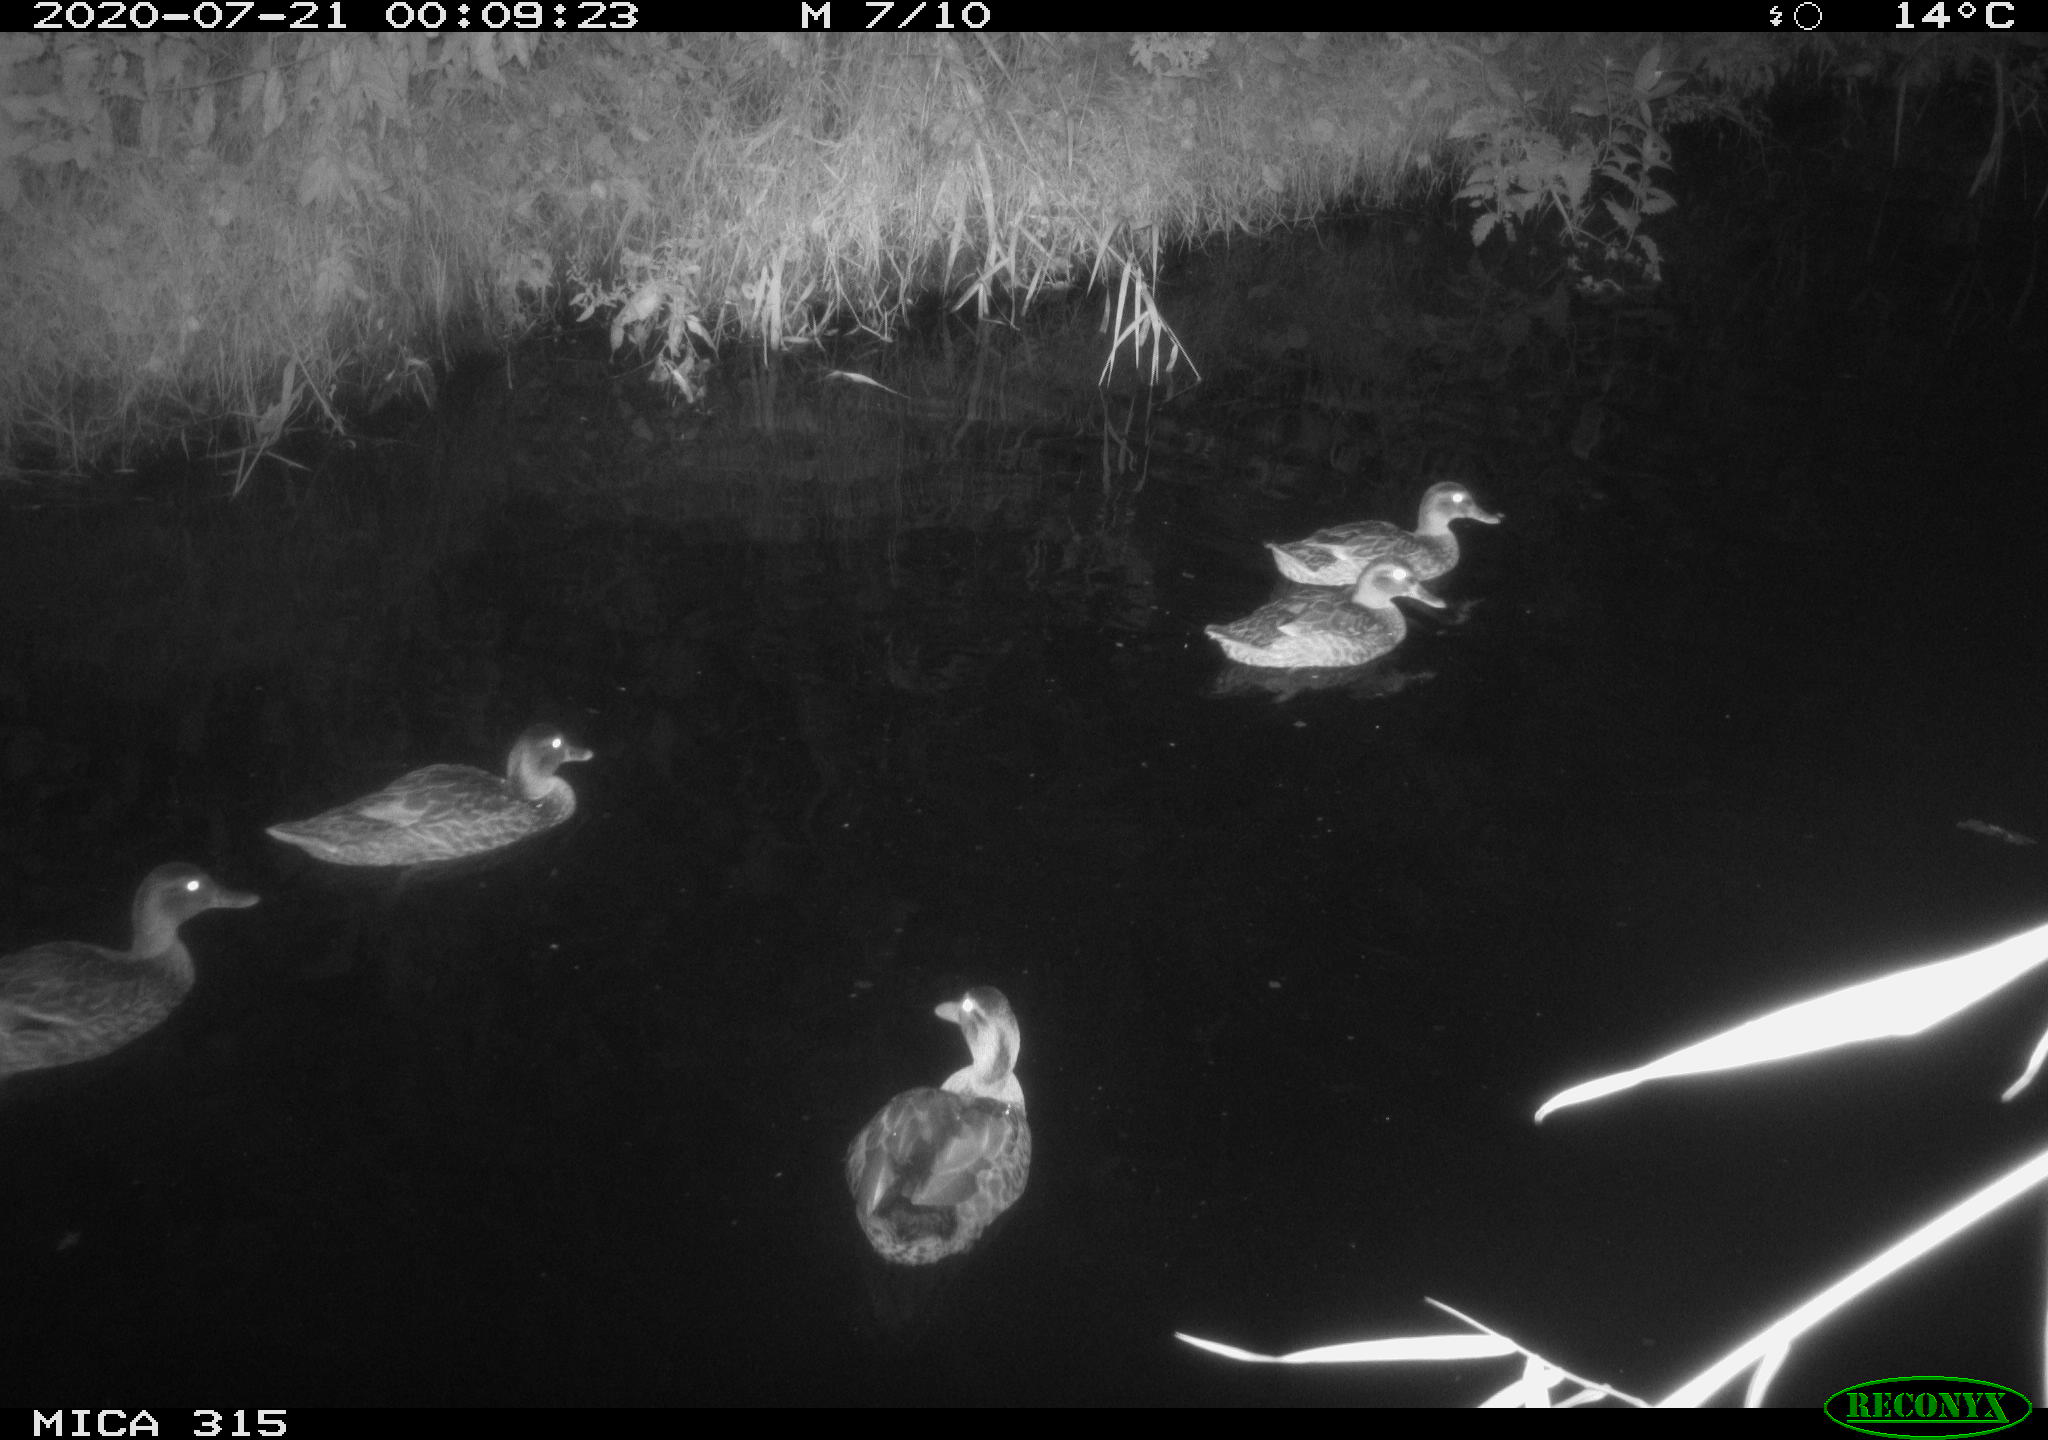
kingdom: Animalia
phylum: Chordata
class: Aves
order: Anseriformes
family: Anatidae
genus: Anas
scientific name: Anas platyrhynchos
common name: Mallard
